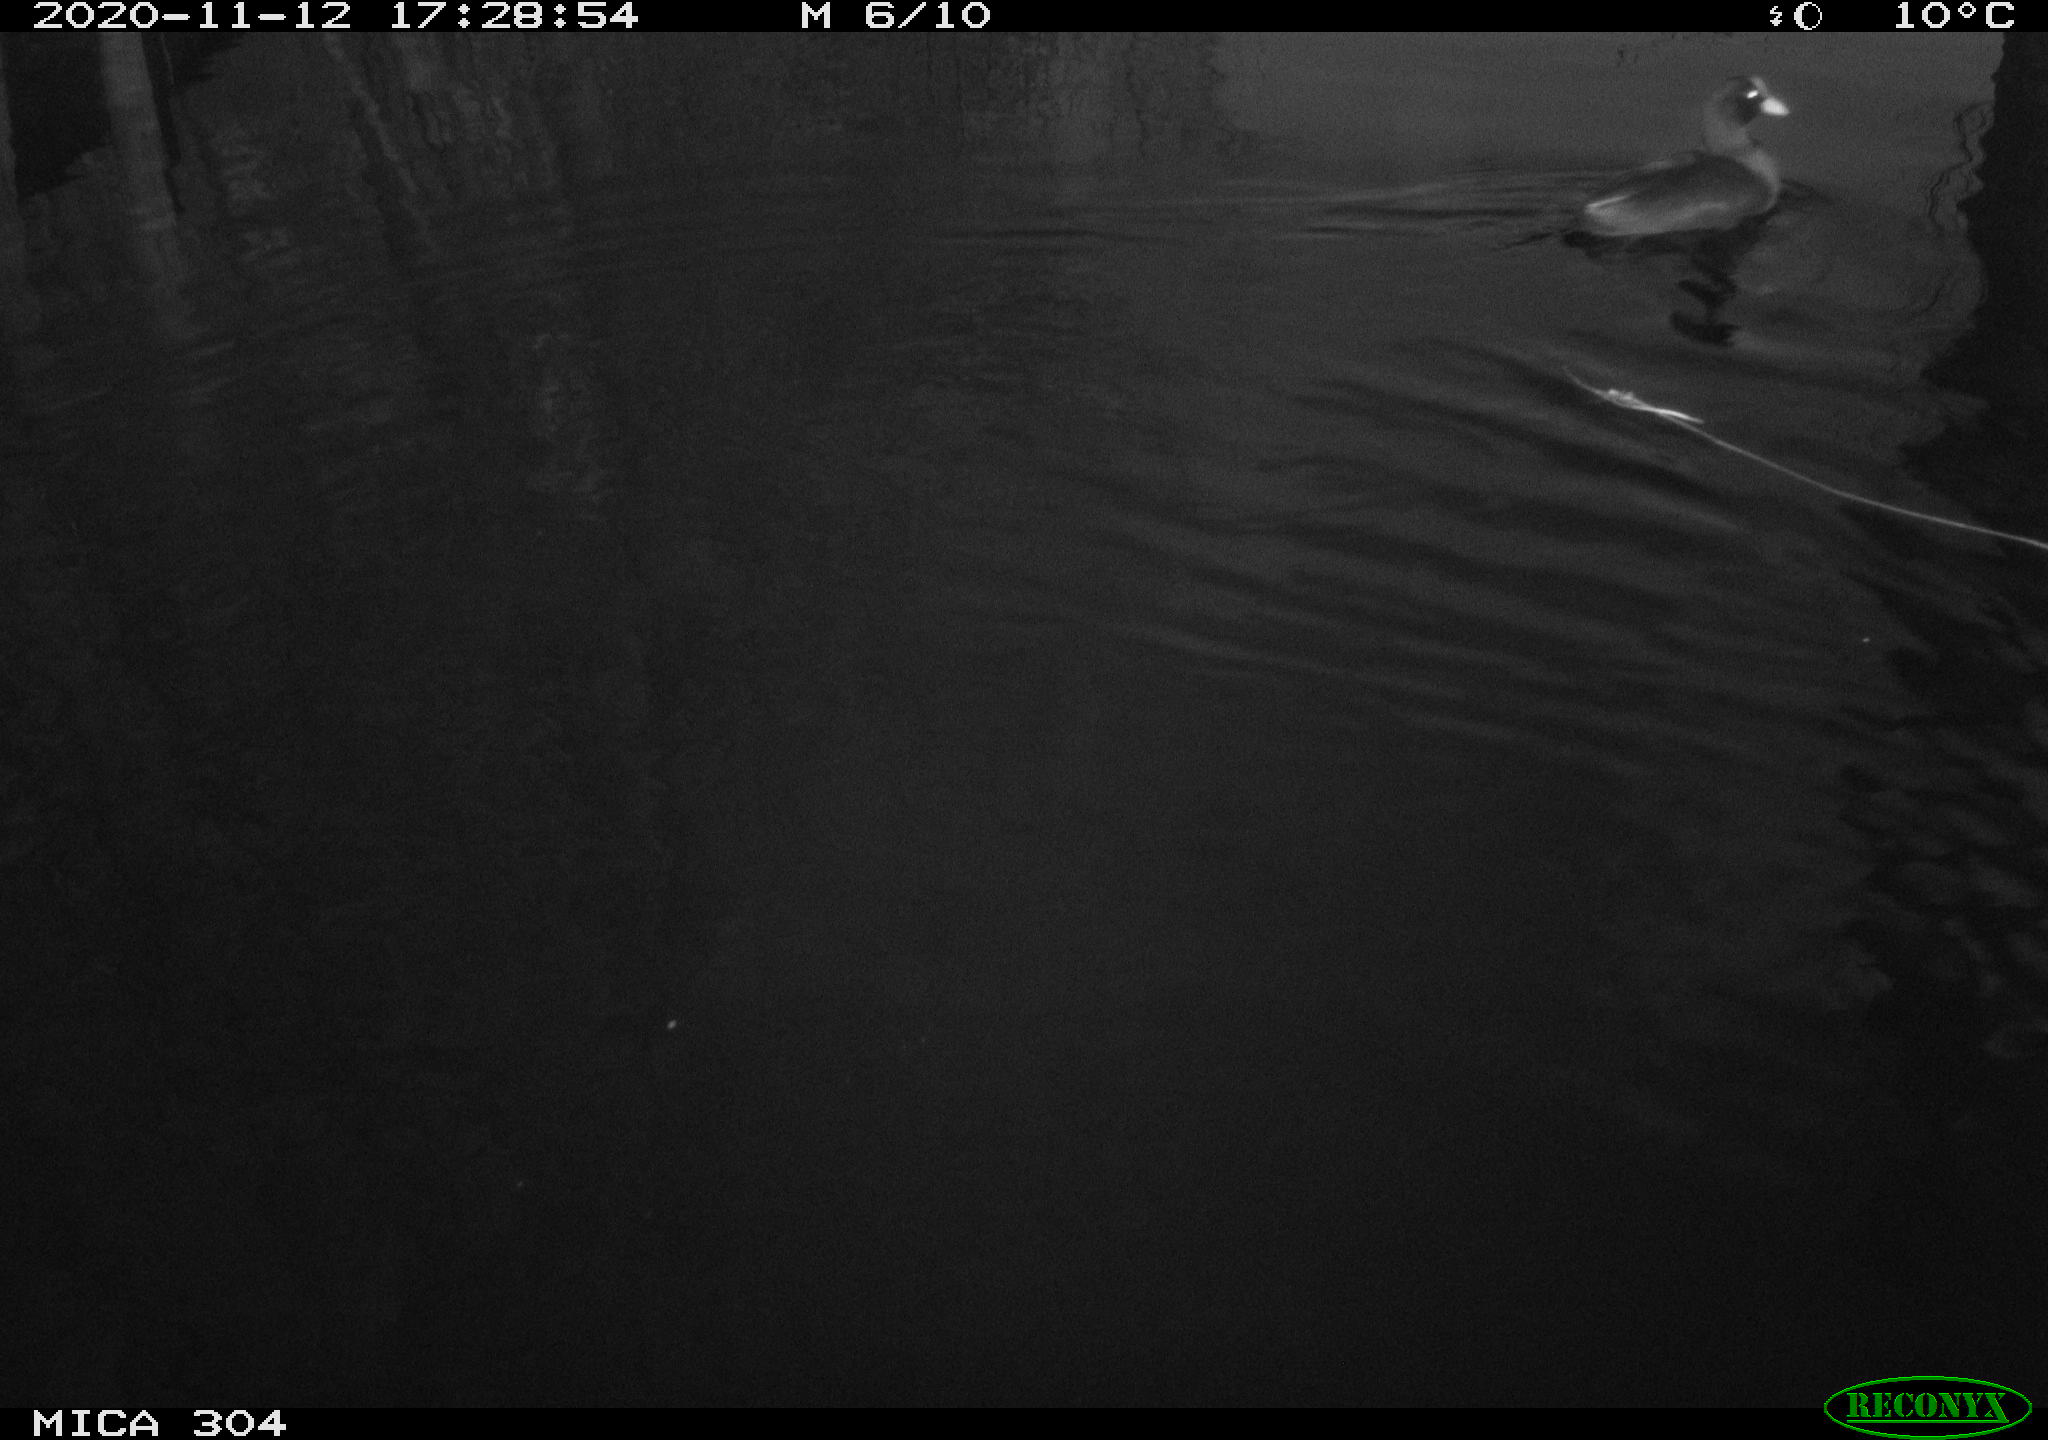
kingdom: Animalia
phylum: Chordata
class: Aves
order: Gruiformes
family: Rallidae
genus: Fulica
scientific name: Fulica atra
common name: Eurasian coot
